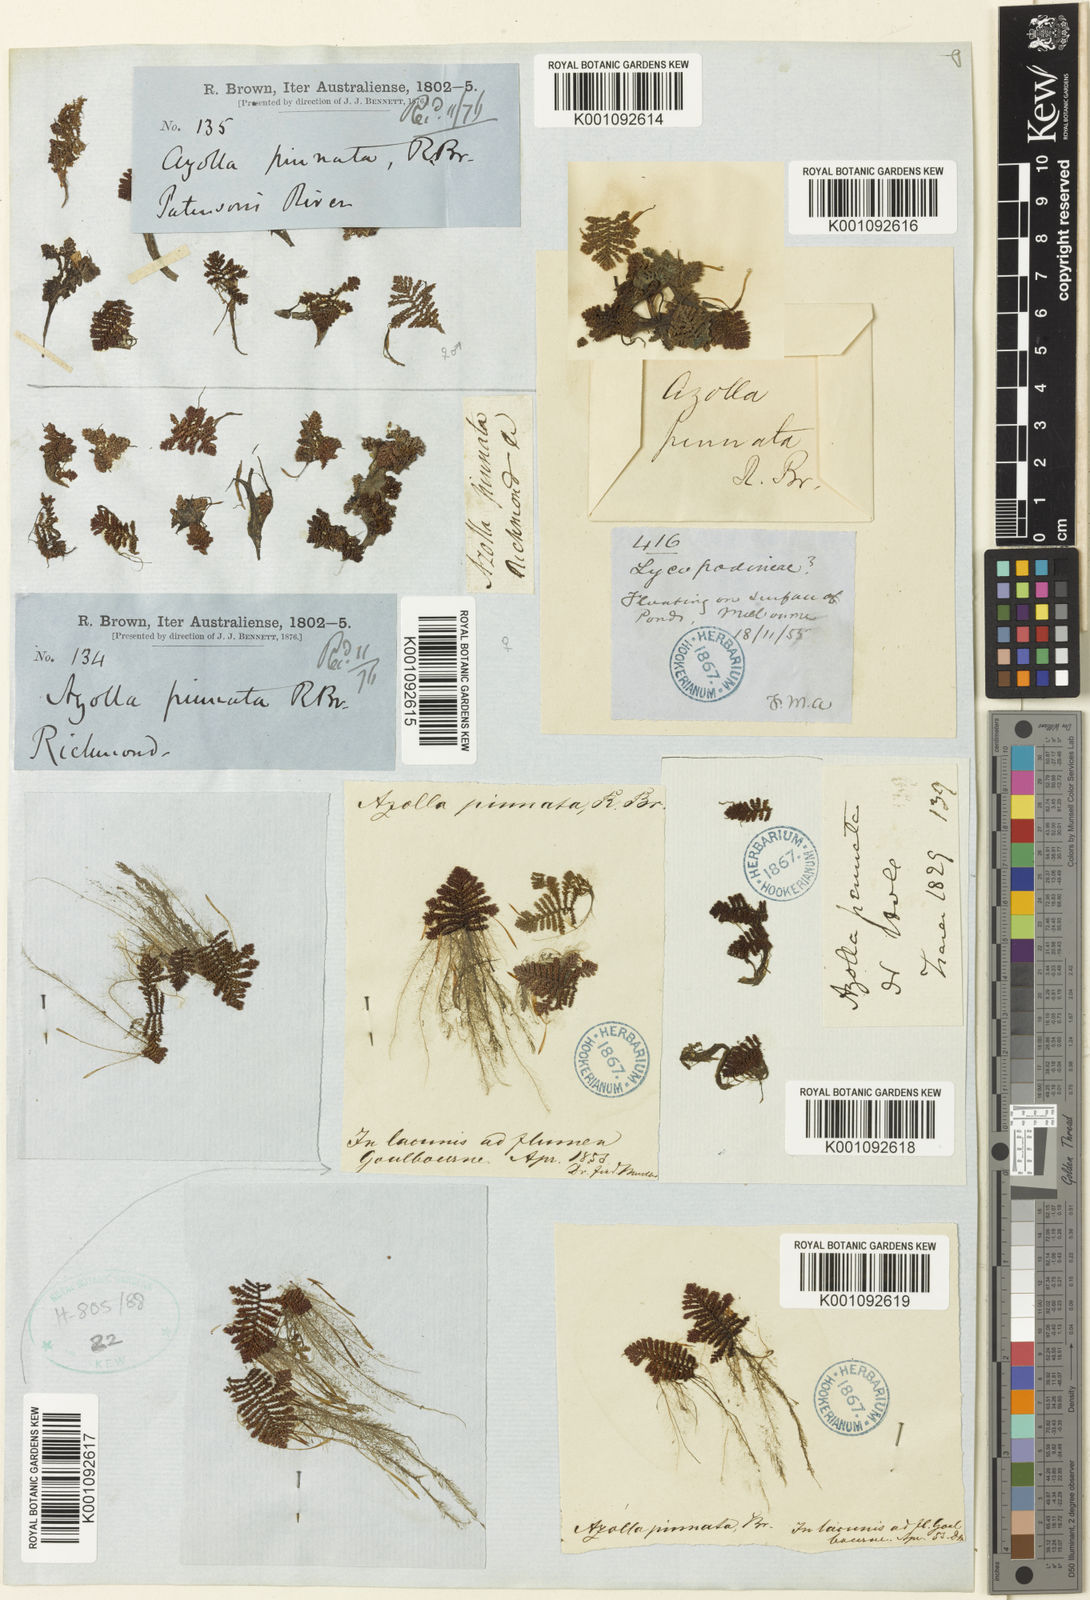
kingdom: Plantae
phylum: Tracheophyta
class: Polypodiopsida
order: Salviniales
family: Salviniaceae
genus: Azolla
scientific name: Azolla pinnata
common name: Ferny azolla
